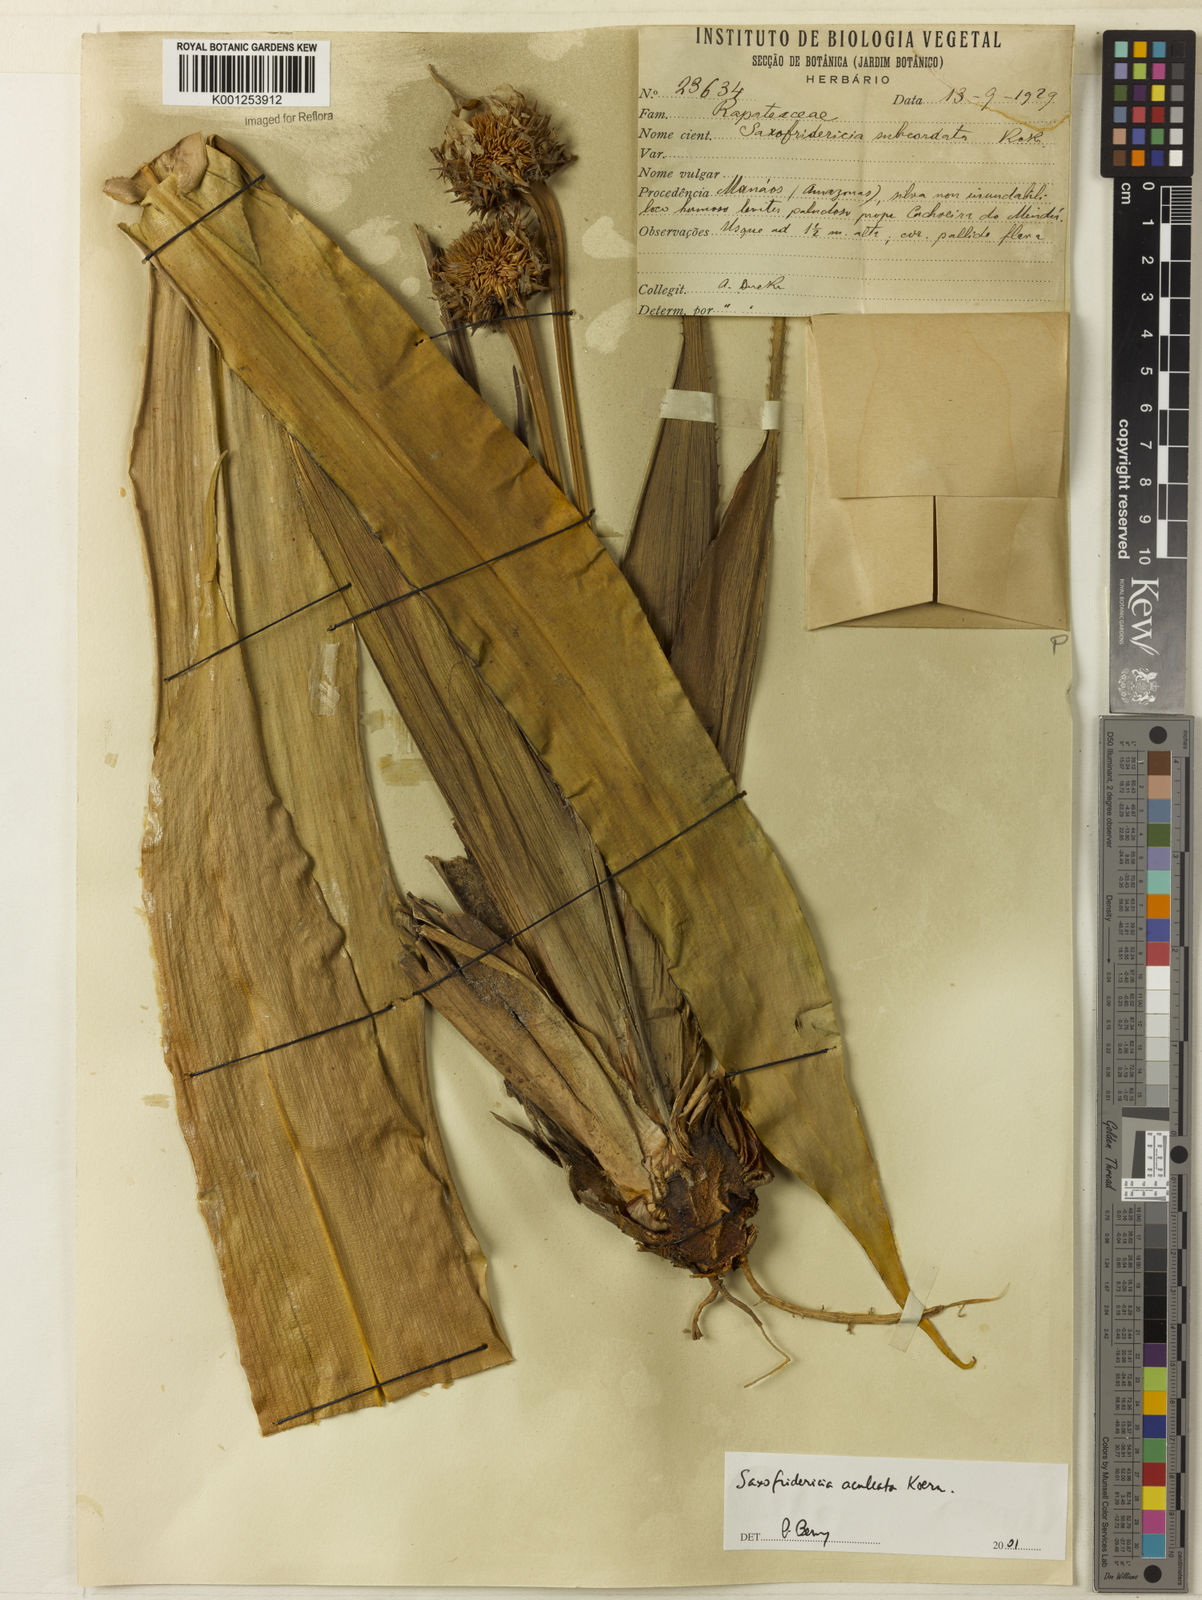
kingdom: Plantae
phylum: Tracheophyta
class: Liliopsida
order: Poales
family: Rapateaceae
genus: Saxofridericia
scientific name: Saxofridericia aculeata
